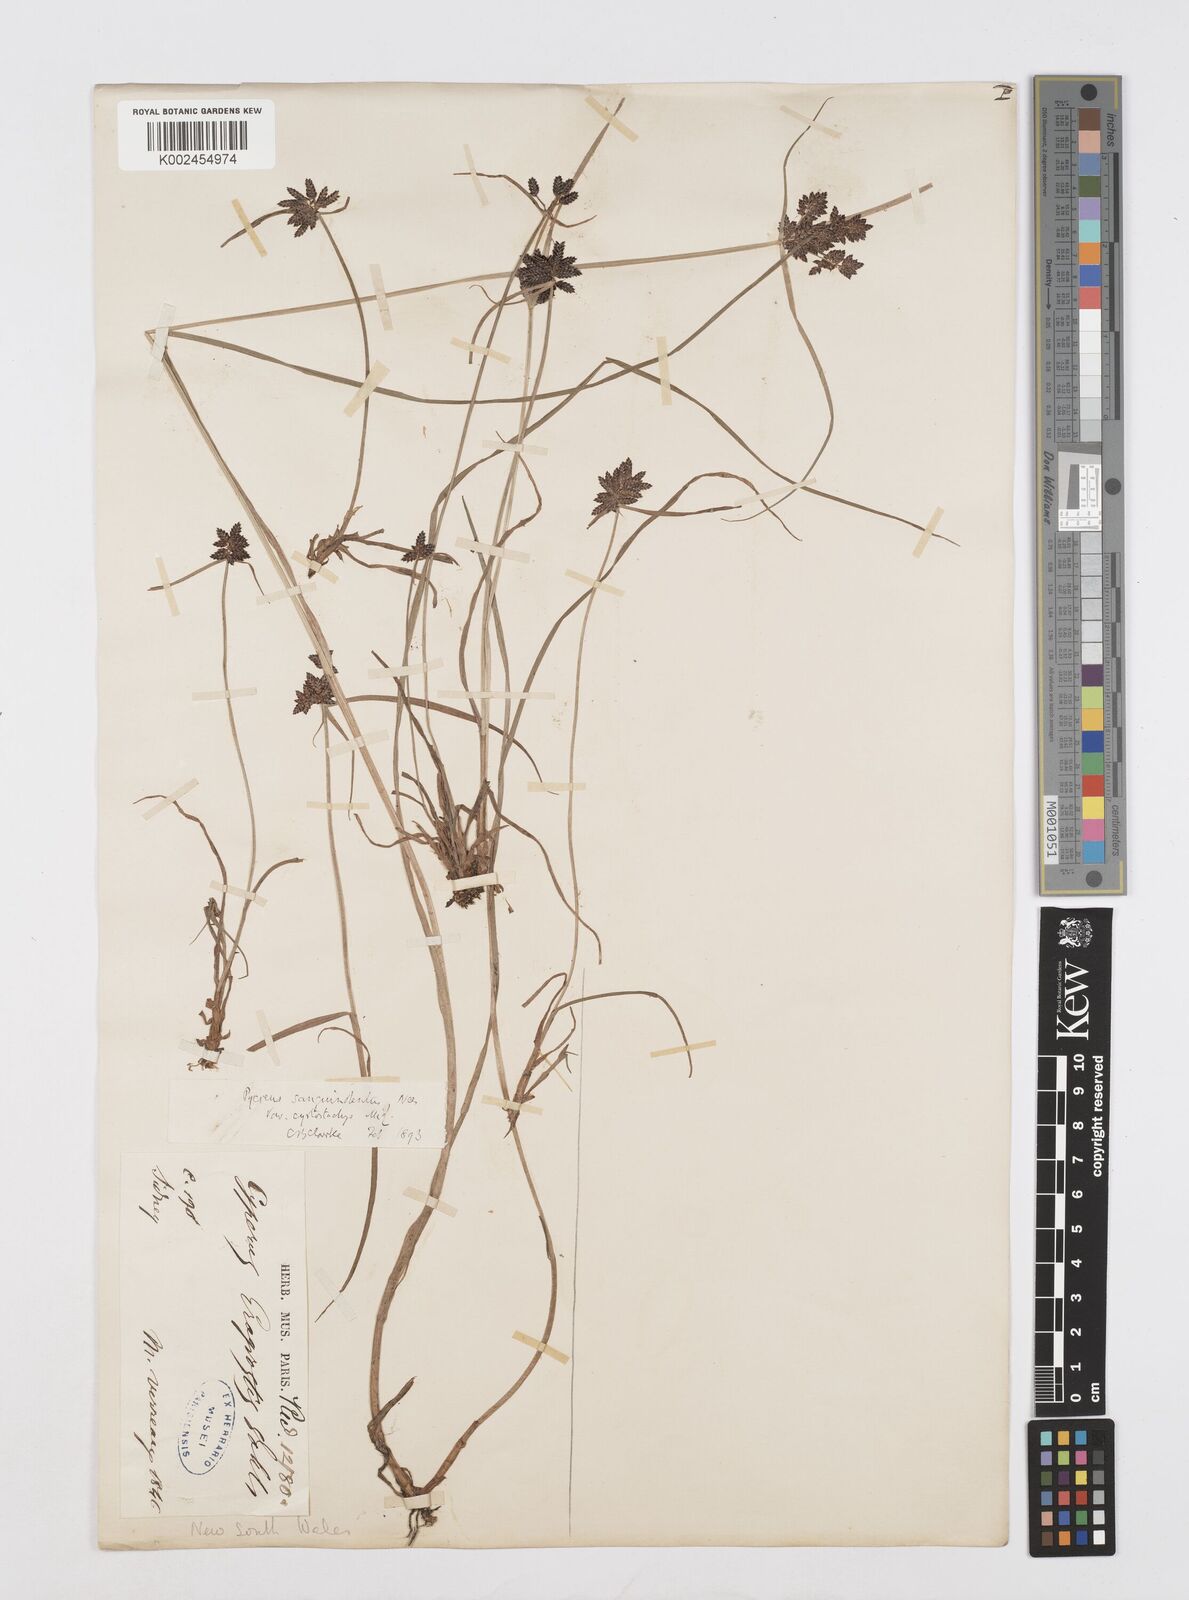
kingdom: Plantae
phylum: Tracheophyta
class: Liliopsida
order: Poales
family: Cyperaceae
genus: Cyperus
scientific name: Cyperus sanguinolentus
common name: Purpleglume flatsedge
